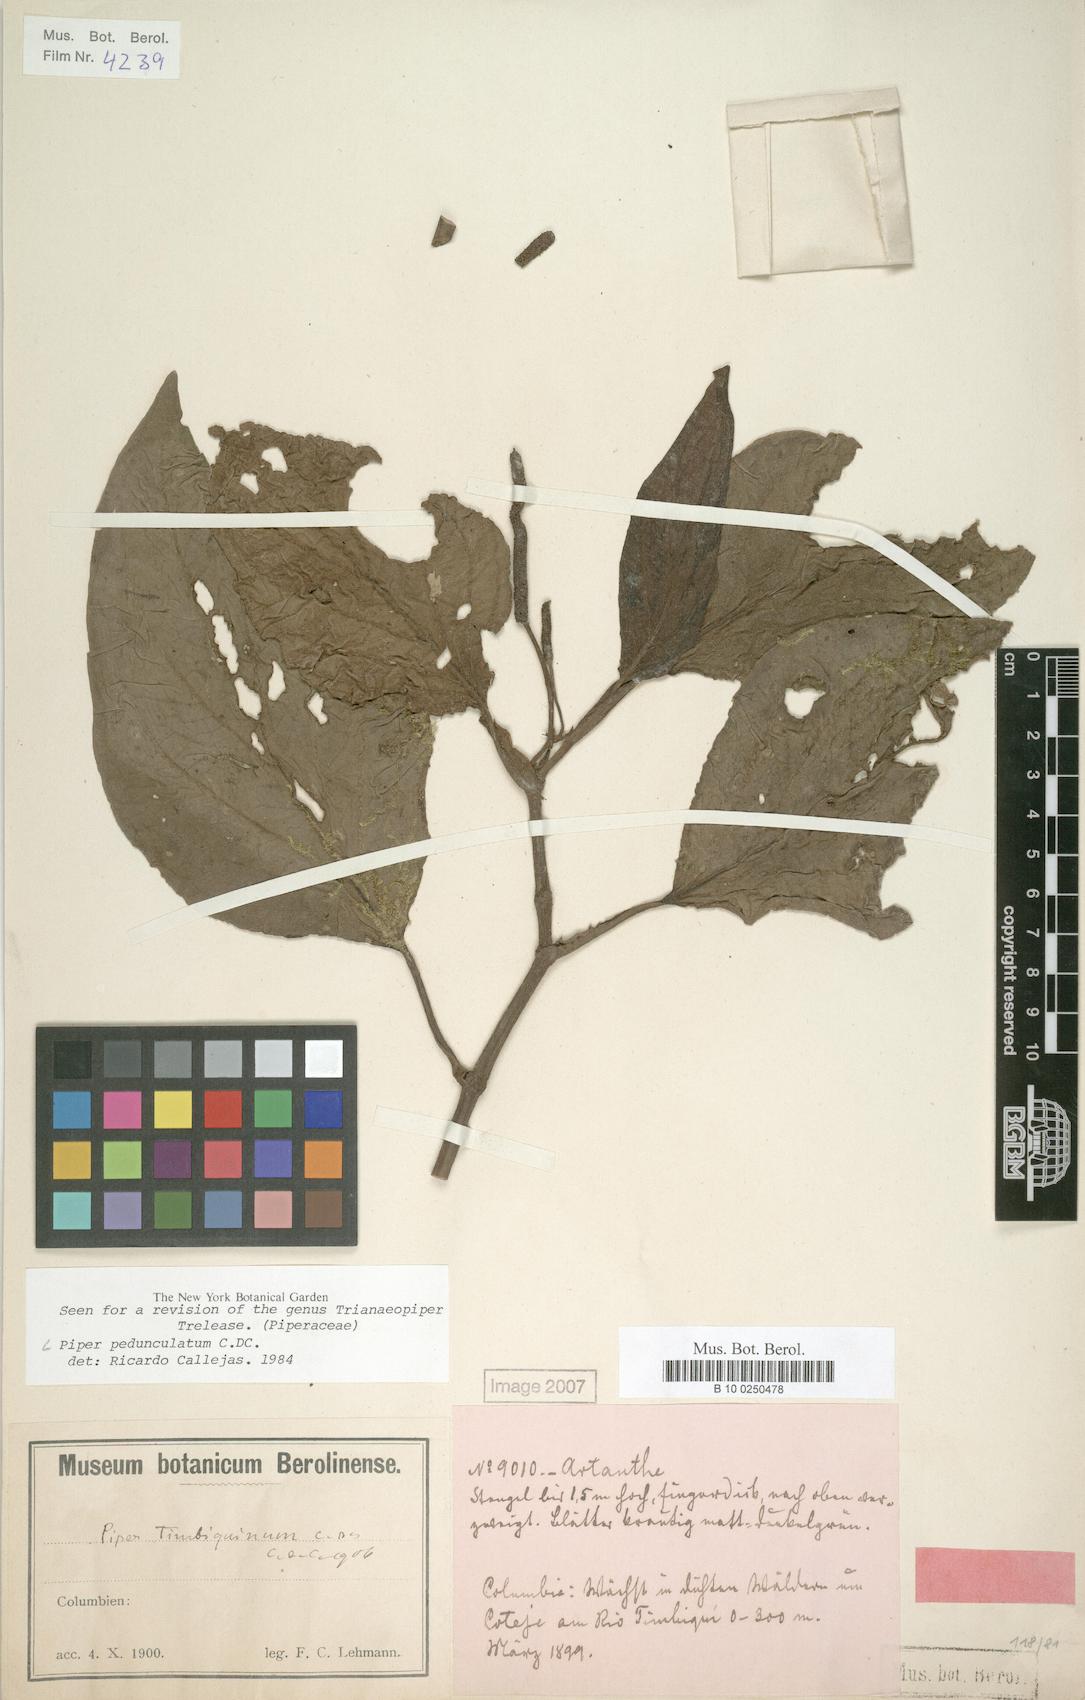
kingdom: Plantae
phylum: Tracheophyta
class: Magnoliopsida
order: Piperales
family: Piperaceae
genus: Piper
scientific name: Piper pedunculatum
